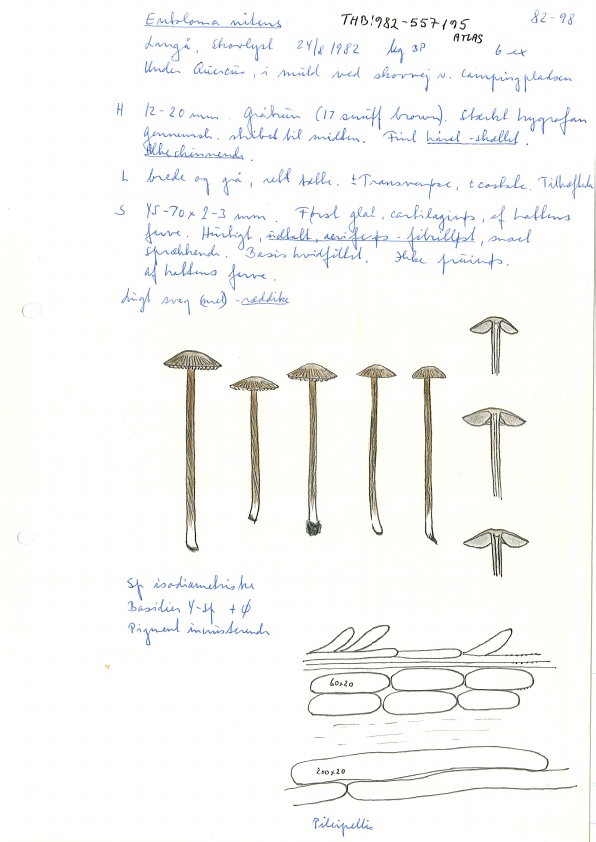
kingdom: Fungi
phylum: Basidiomycota
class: Agaricomycetes
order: Agaricales
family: Entolomataceae
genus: Entoloma
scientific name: Entoloma cuneatum
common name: dunstokket rødblad
